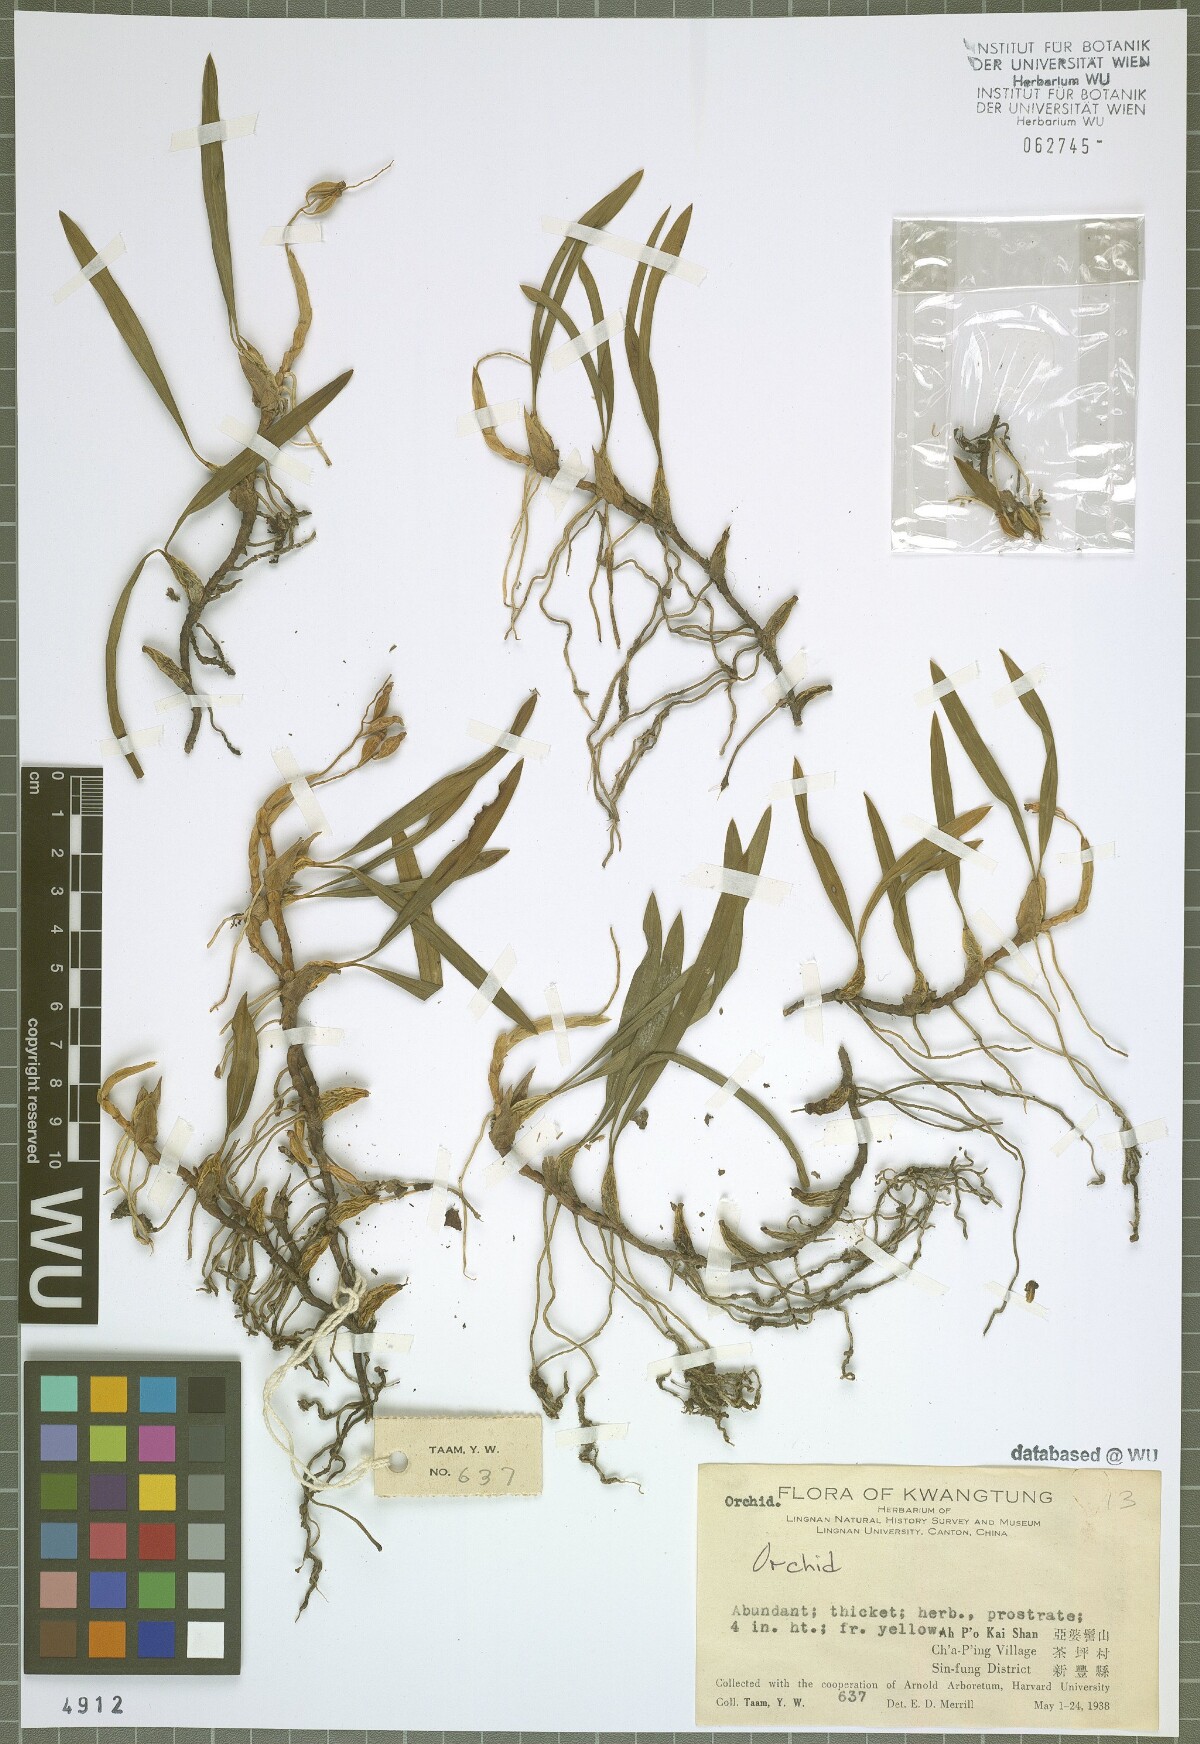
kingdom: Plantae
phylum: Tracheophyta
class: Liliopsida
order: Asparagales
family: Orchidaceae
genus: Coelogyne
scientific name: Coelogyne cantonensis
